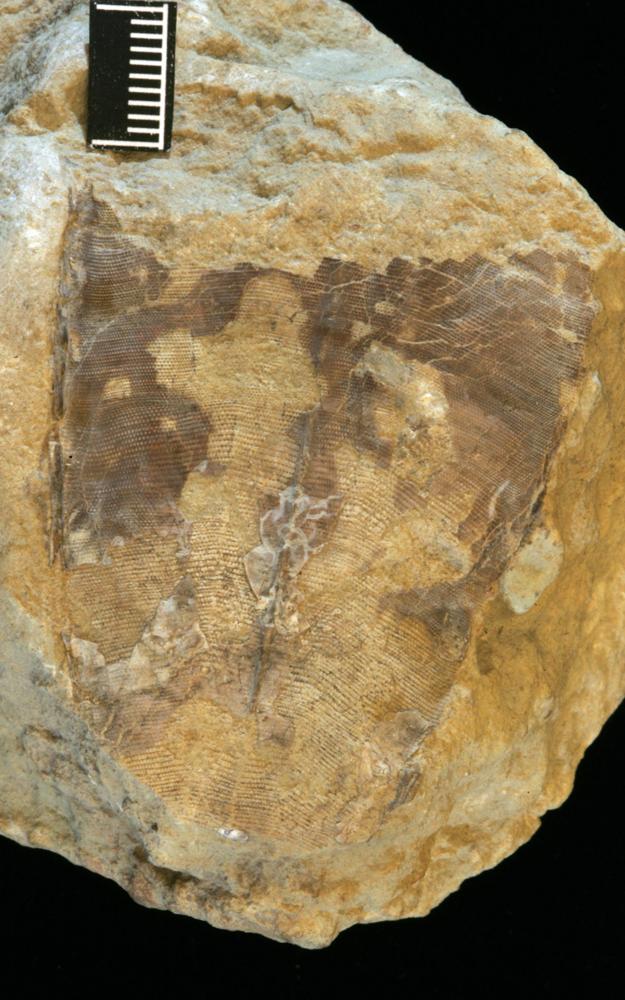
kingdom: Animalia
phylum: Cnidaria
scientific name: Cnidaria
